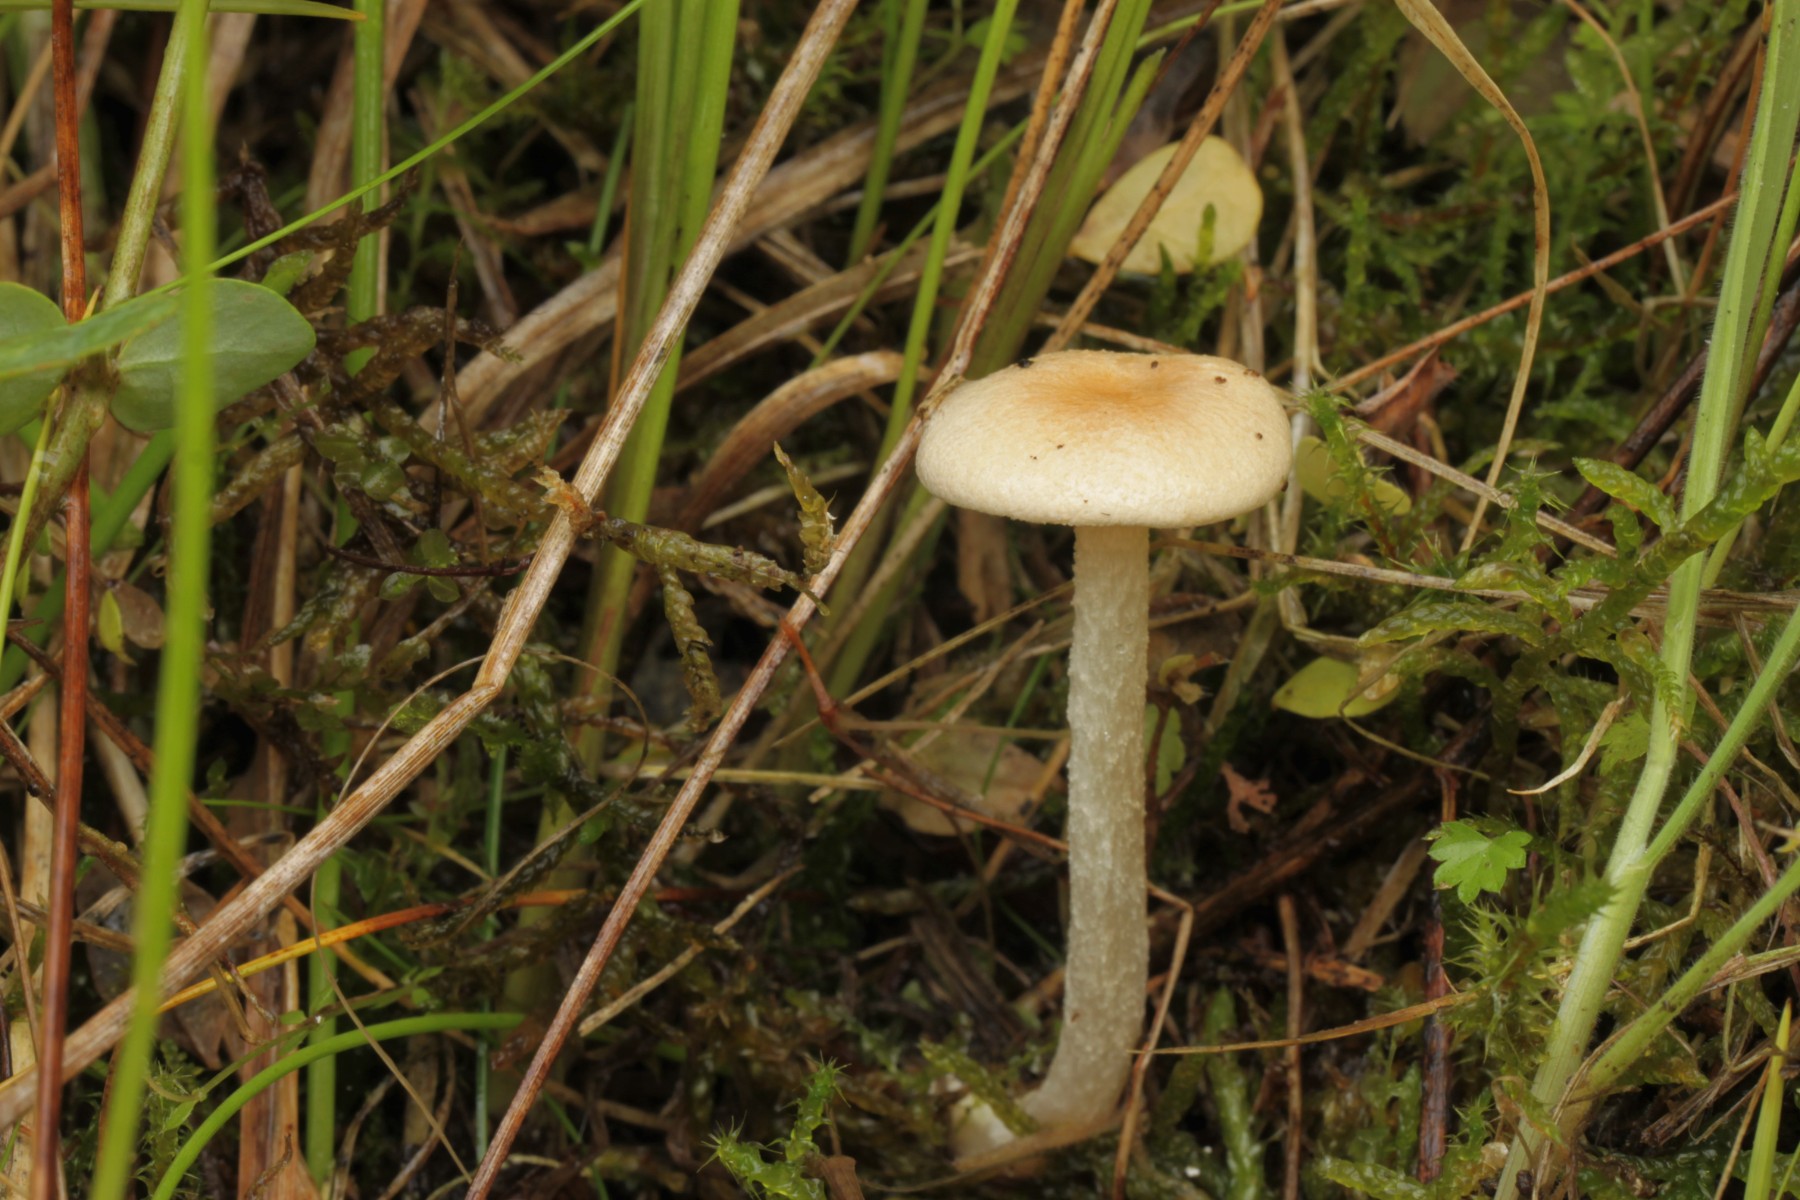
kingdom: Fungi
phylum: Basidiomycota
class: Agaricomycetes
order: Agaricales
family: Entolomataceae
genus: Entoloma
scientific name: Entoloma queletii
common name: rosalilla rødblad
